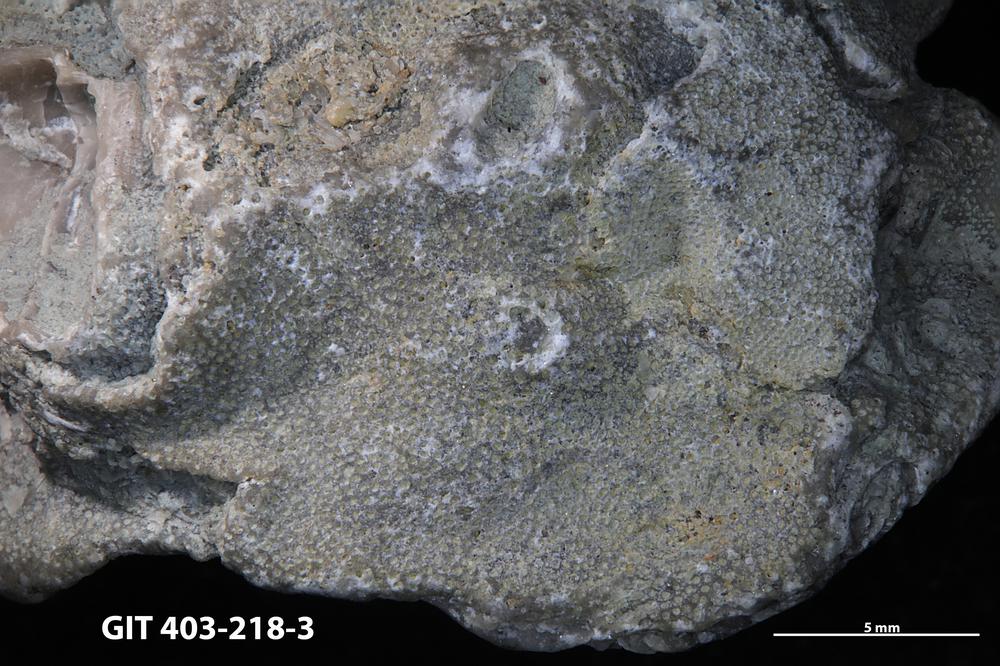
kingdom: Animalia
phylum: Bryozoa
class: Stenolaemata
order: Cystoporida
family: Fistuliporidae
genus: Fistulipora
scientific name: Fistulipora
